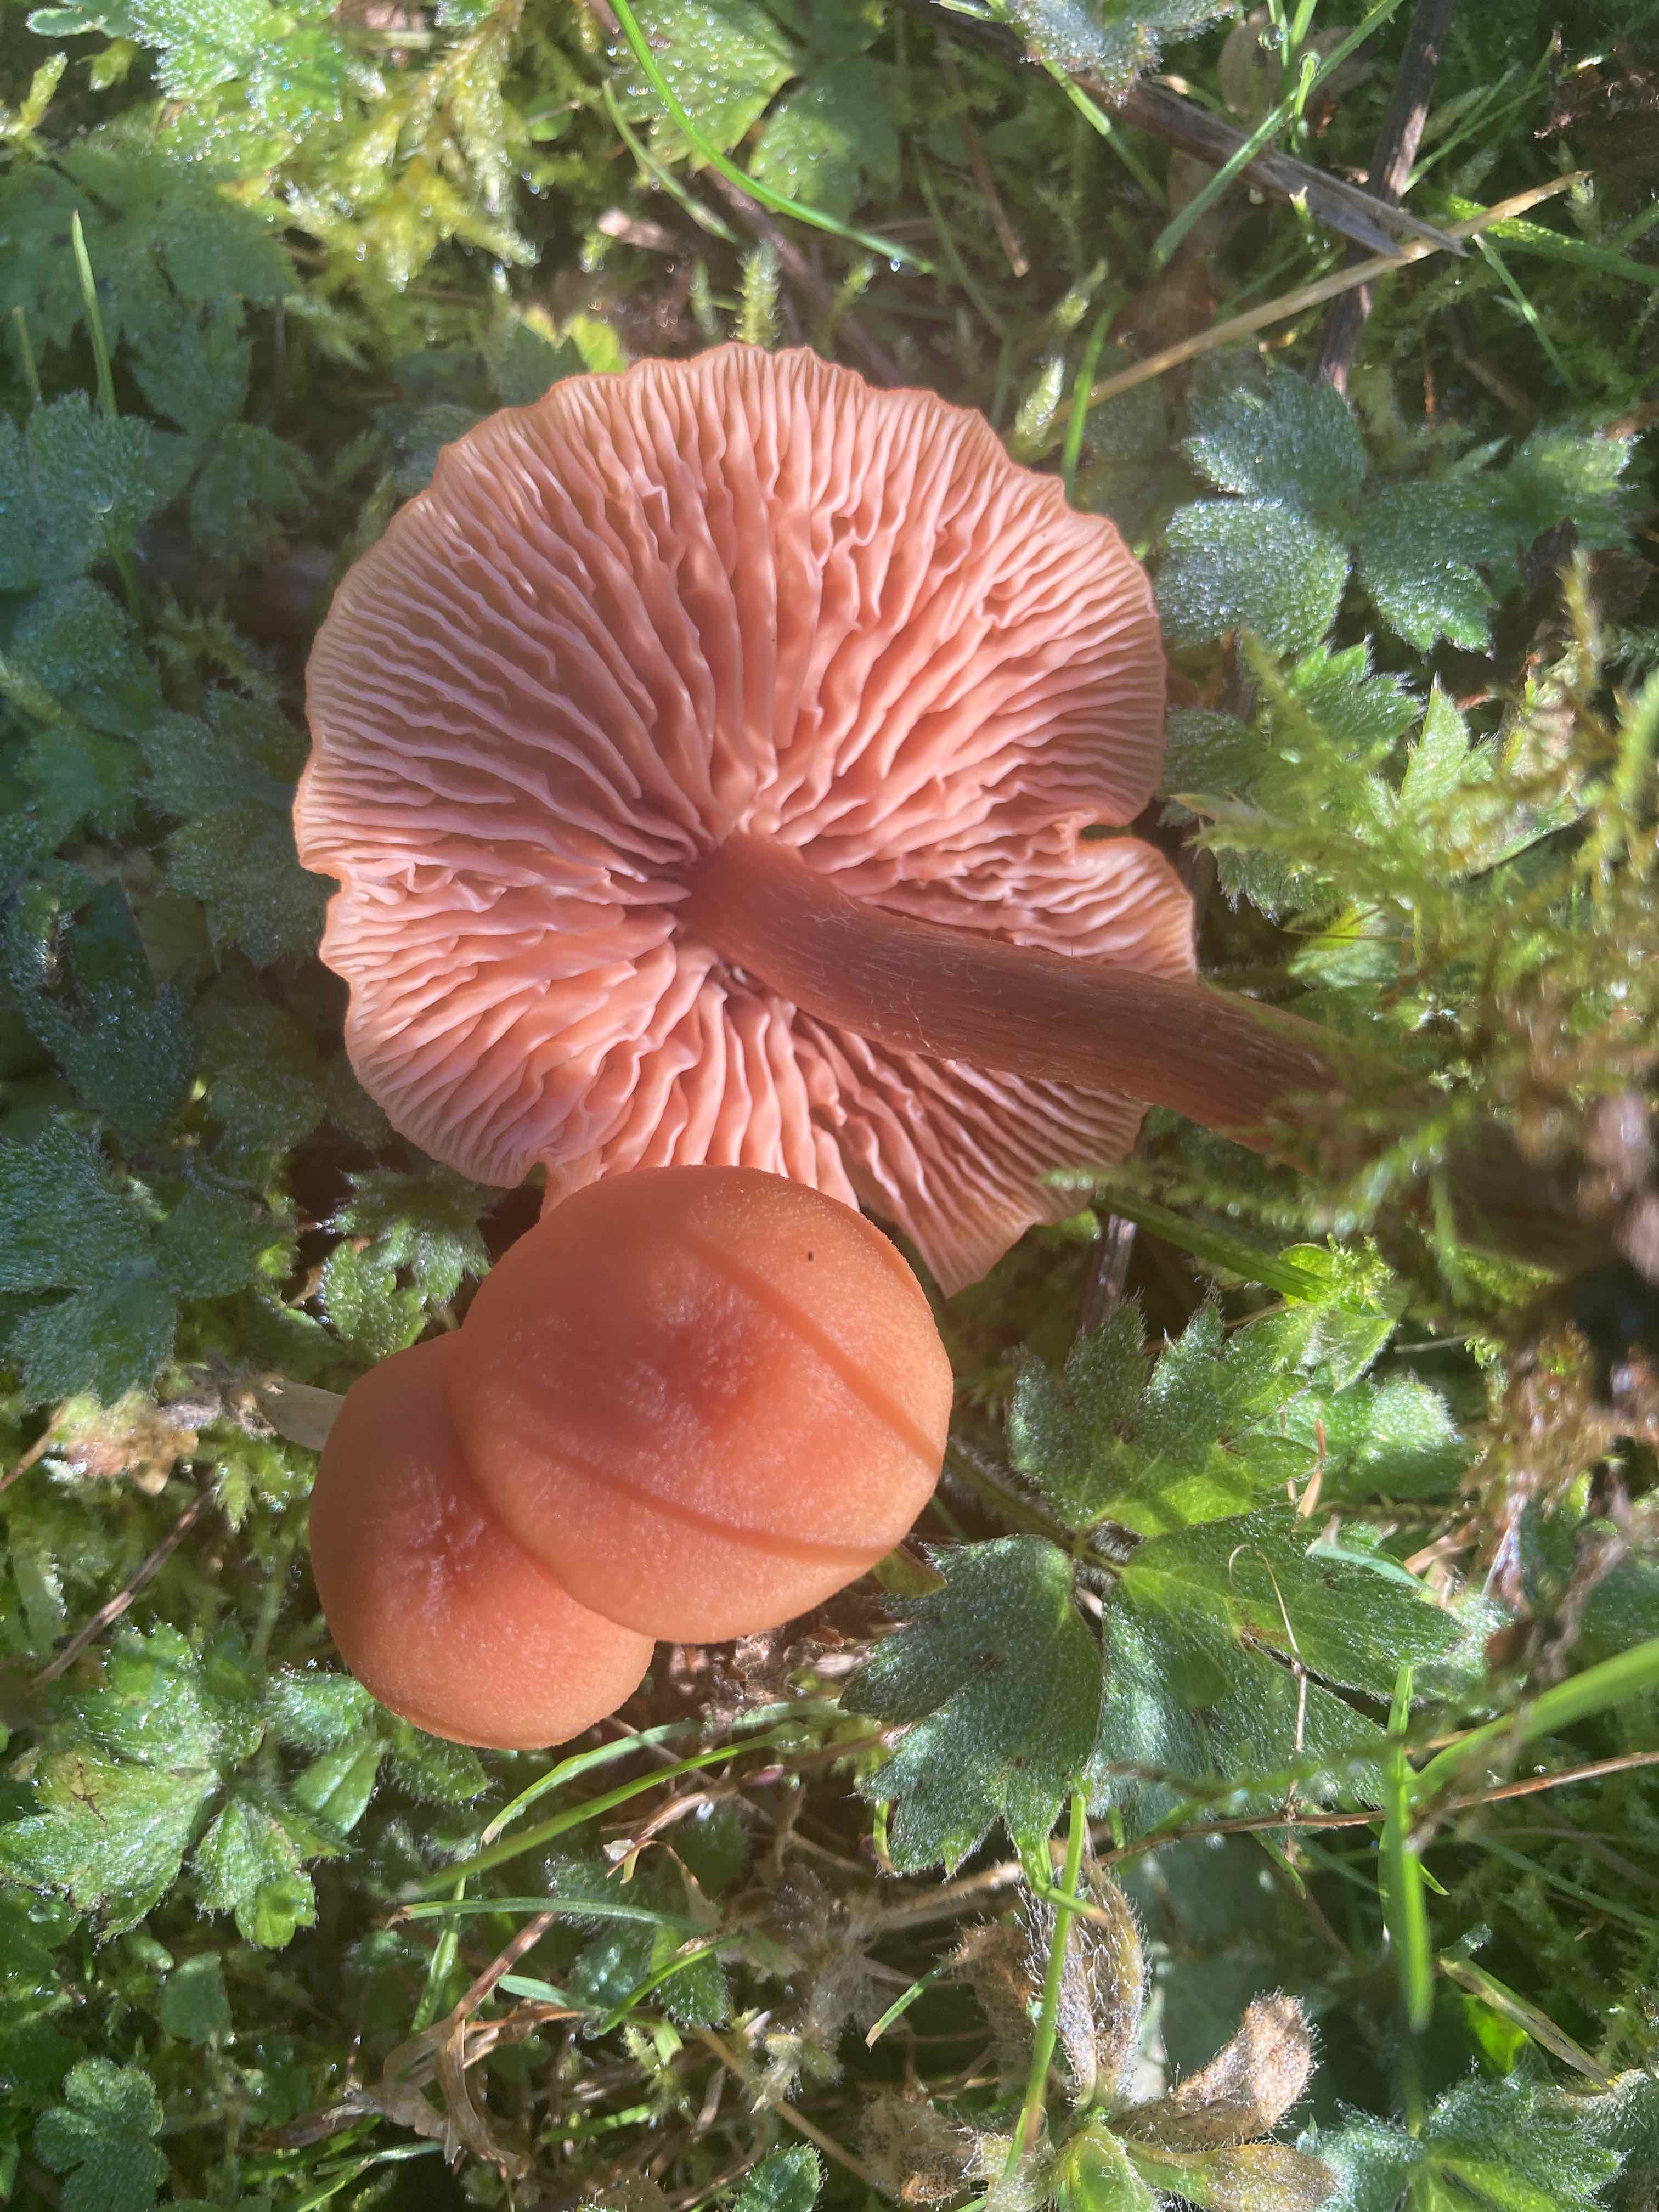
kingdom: Fungi
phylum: Basidiomycota
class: Agaricomycetes
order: Agaricales
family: Hydnangiaceae
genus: Laccaria
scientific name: Laccaria laccata
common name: rød ametysthat
